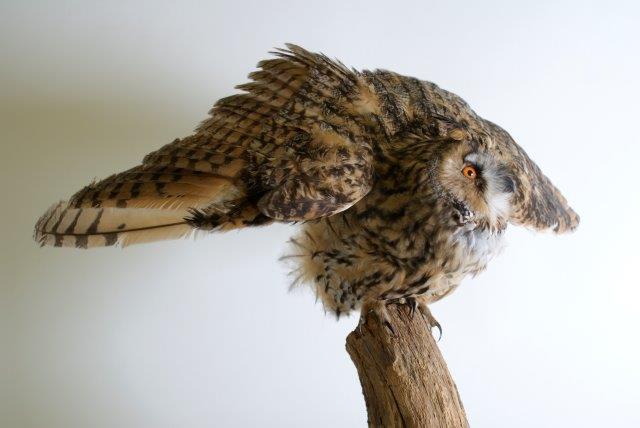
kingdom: Animalia
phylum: Chordata
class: Aves
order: Strigiformes
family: Strigidae
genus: Asio
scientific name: Asio otus
